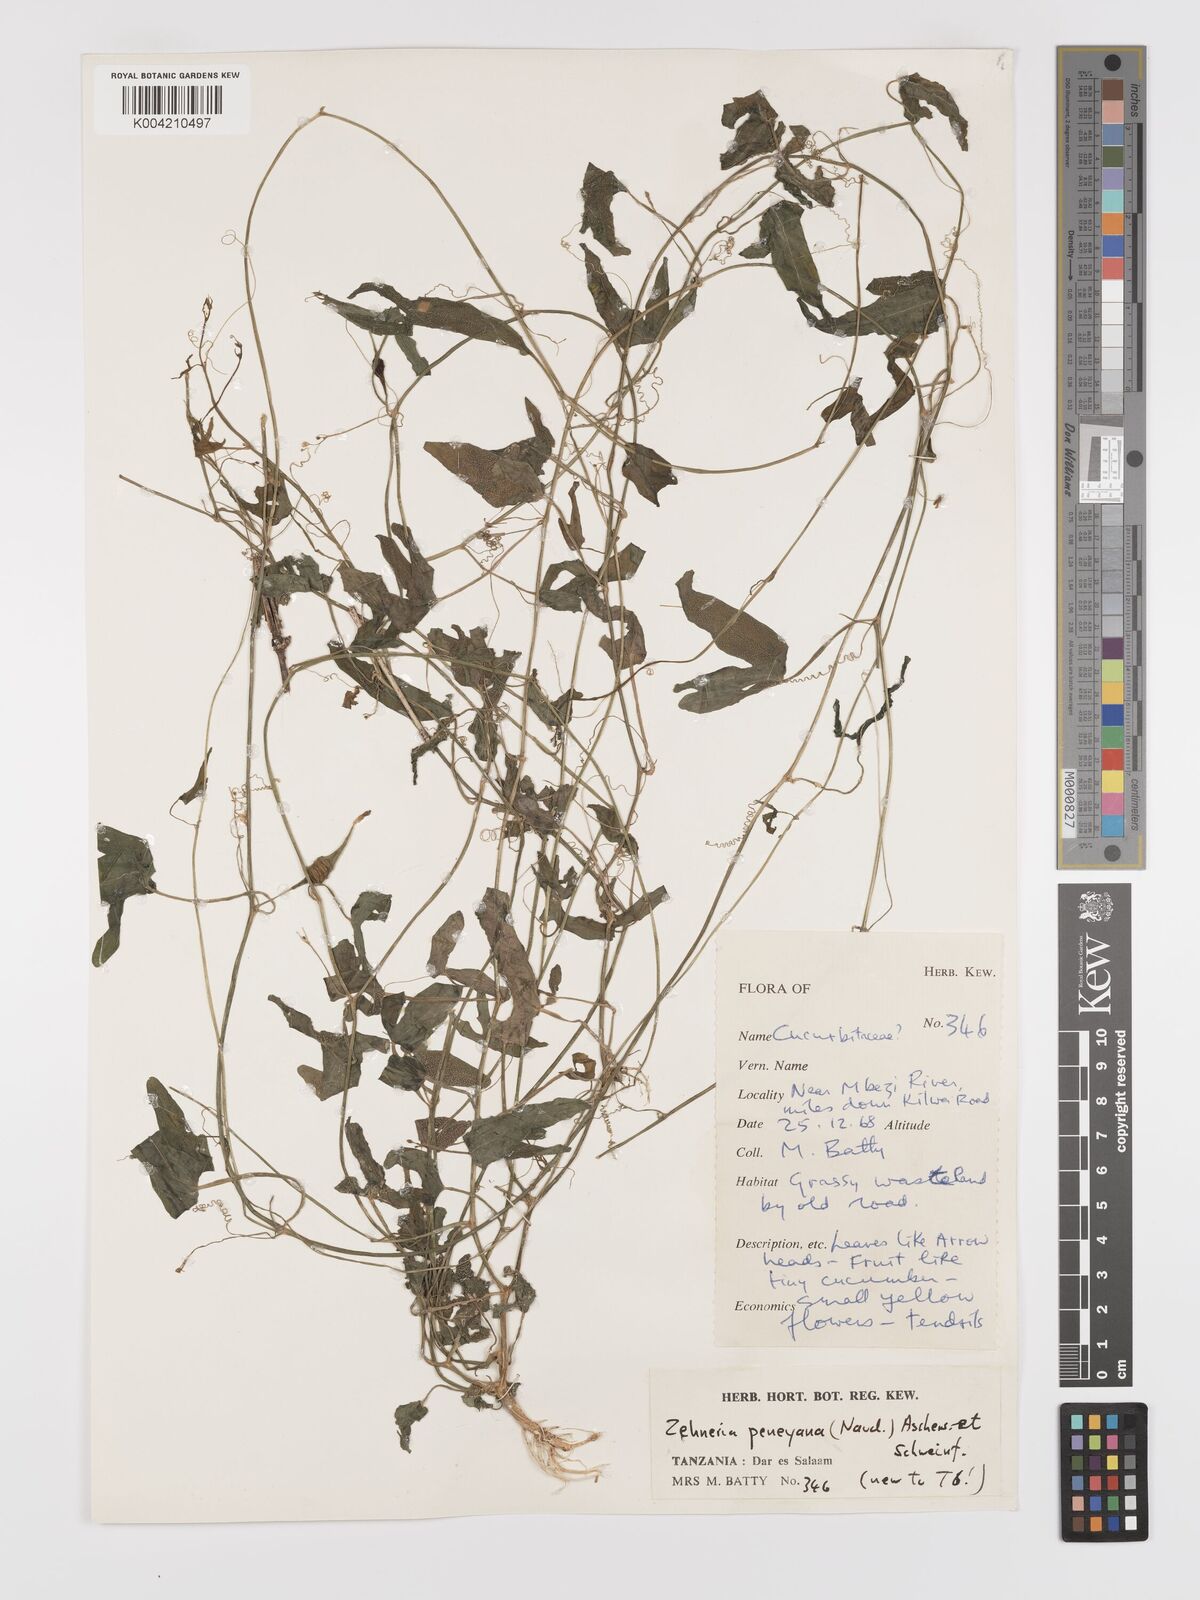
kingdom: Plantae
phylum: Tracheophyta
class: Magnoliopsida
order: Cucurbitales
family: Cucurbitaceae
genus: Zehneria
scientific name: Zehneria peneyana
